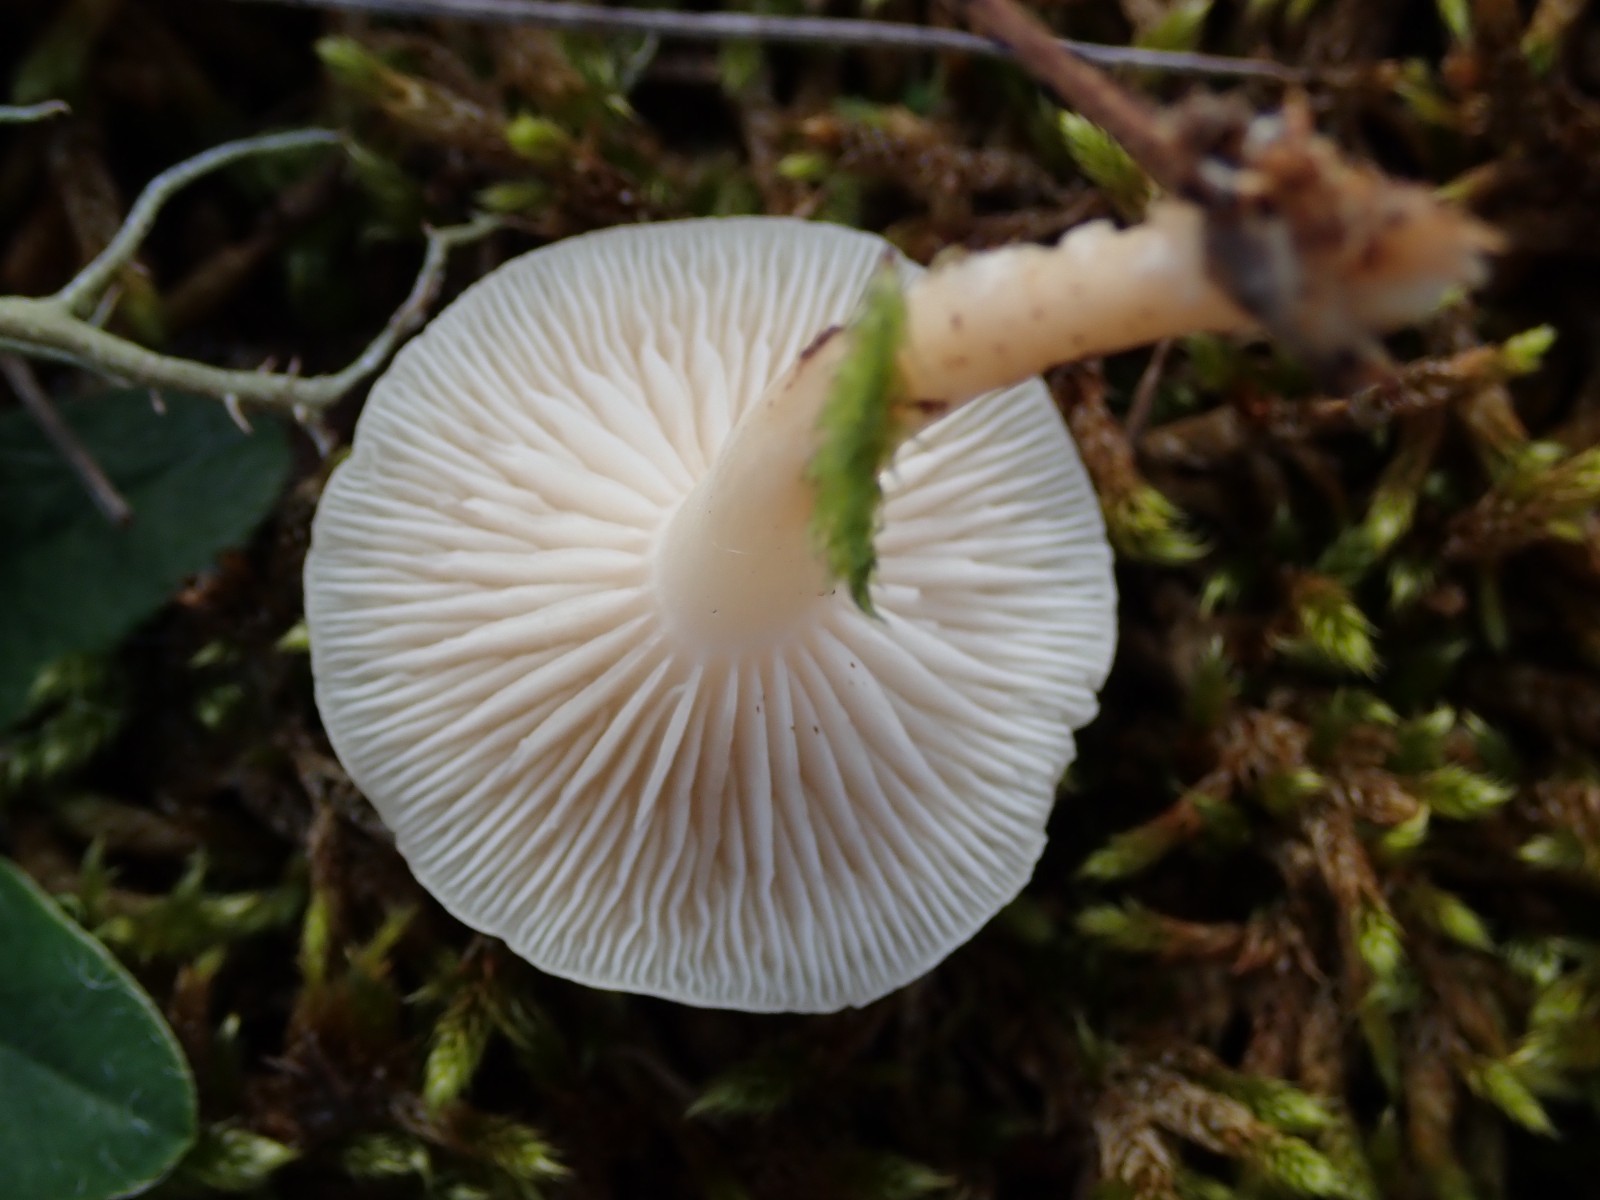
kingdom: Fungi
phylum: Basidiomycota
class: Agaricomycetes
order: Agaricales
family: Tricholomataceae
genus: Clitocybe
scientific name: Clitocybe
